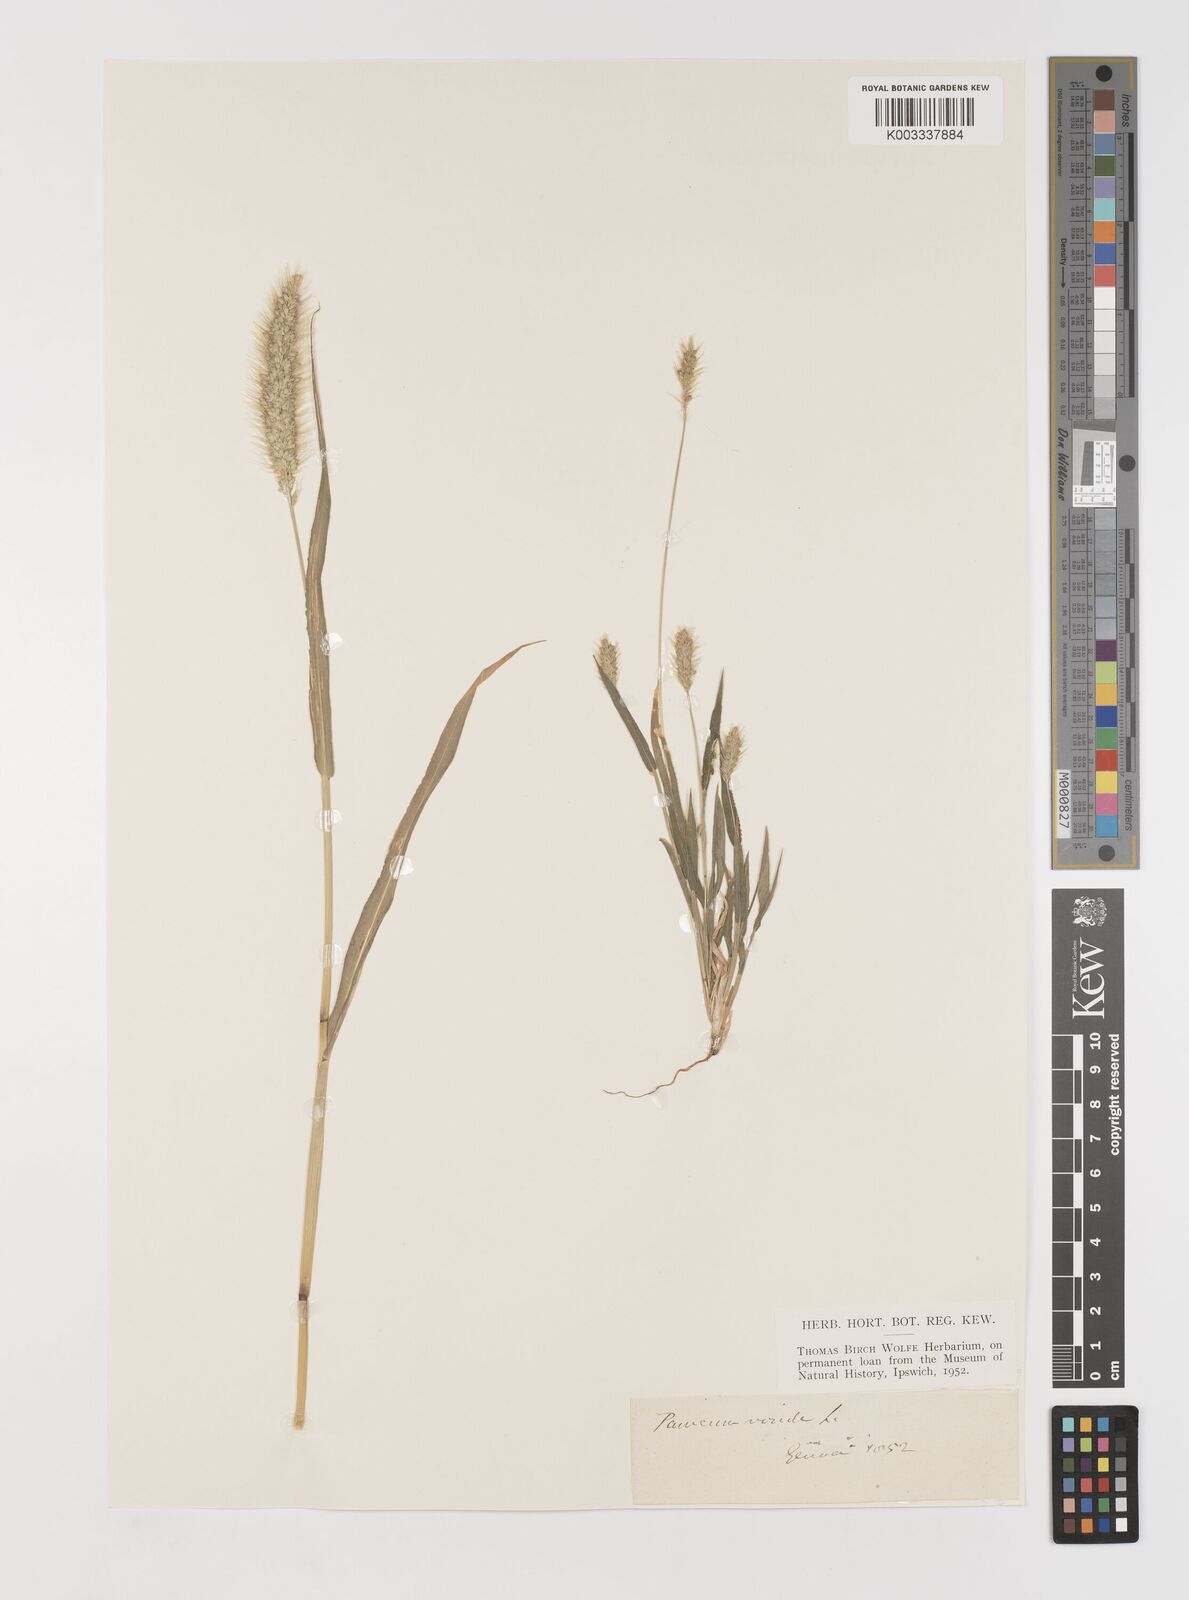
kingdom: Plantae
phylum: Tracheophyta
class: Liliopsida
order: Poales
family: Poaceae
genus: Setaria
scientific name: Setaria viridis
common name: Green bristlegrass
